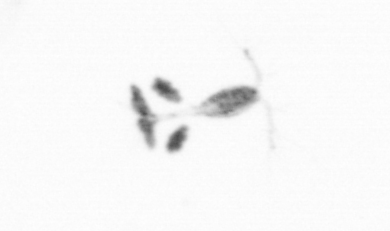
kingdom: Animalia
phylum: Arthropoda
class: Copepoda
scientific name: Copepoda
